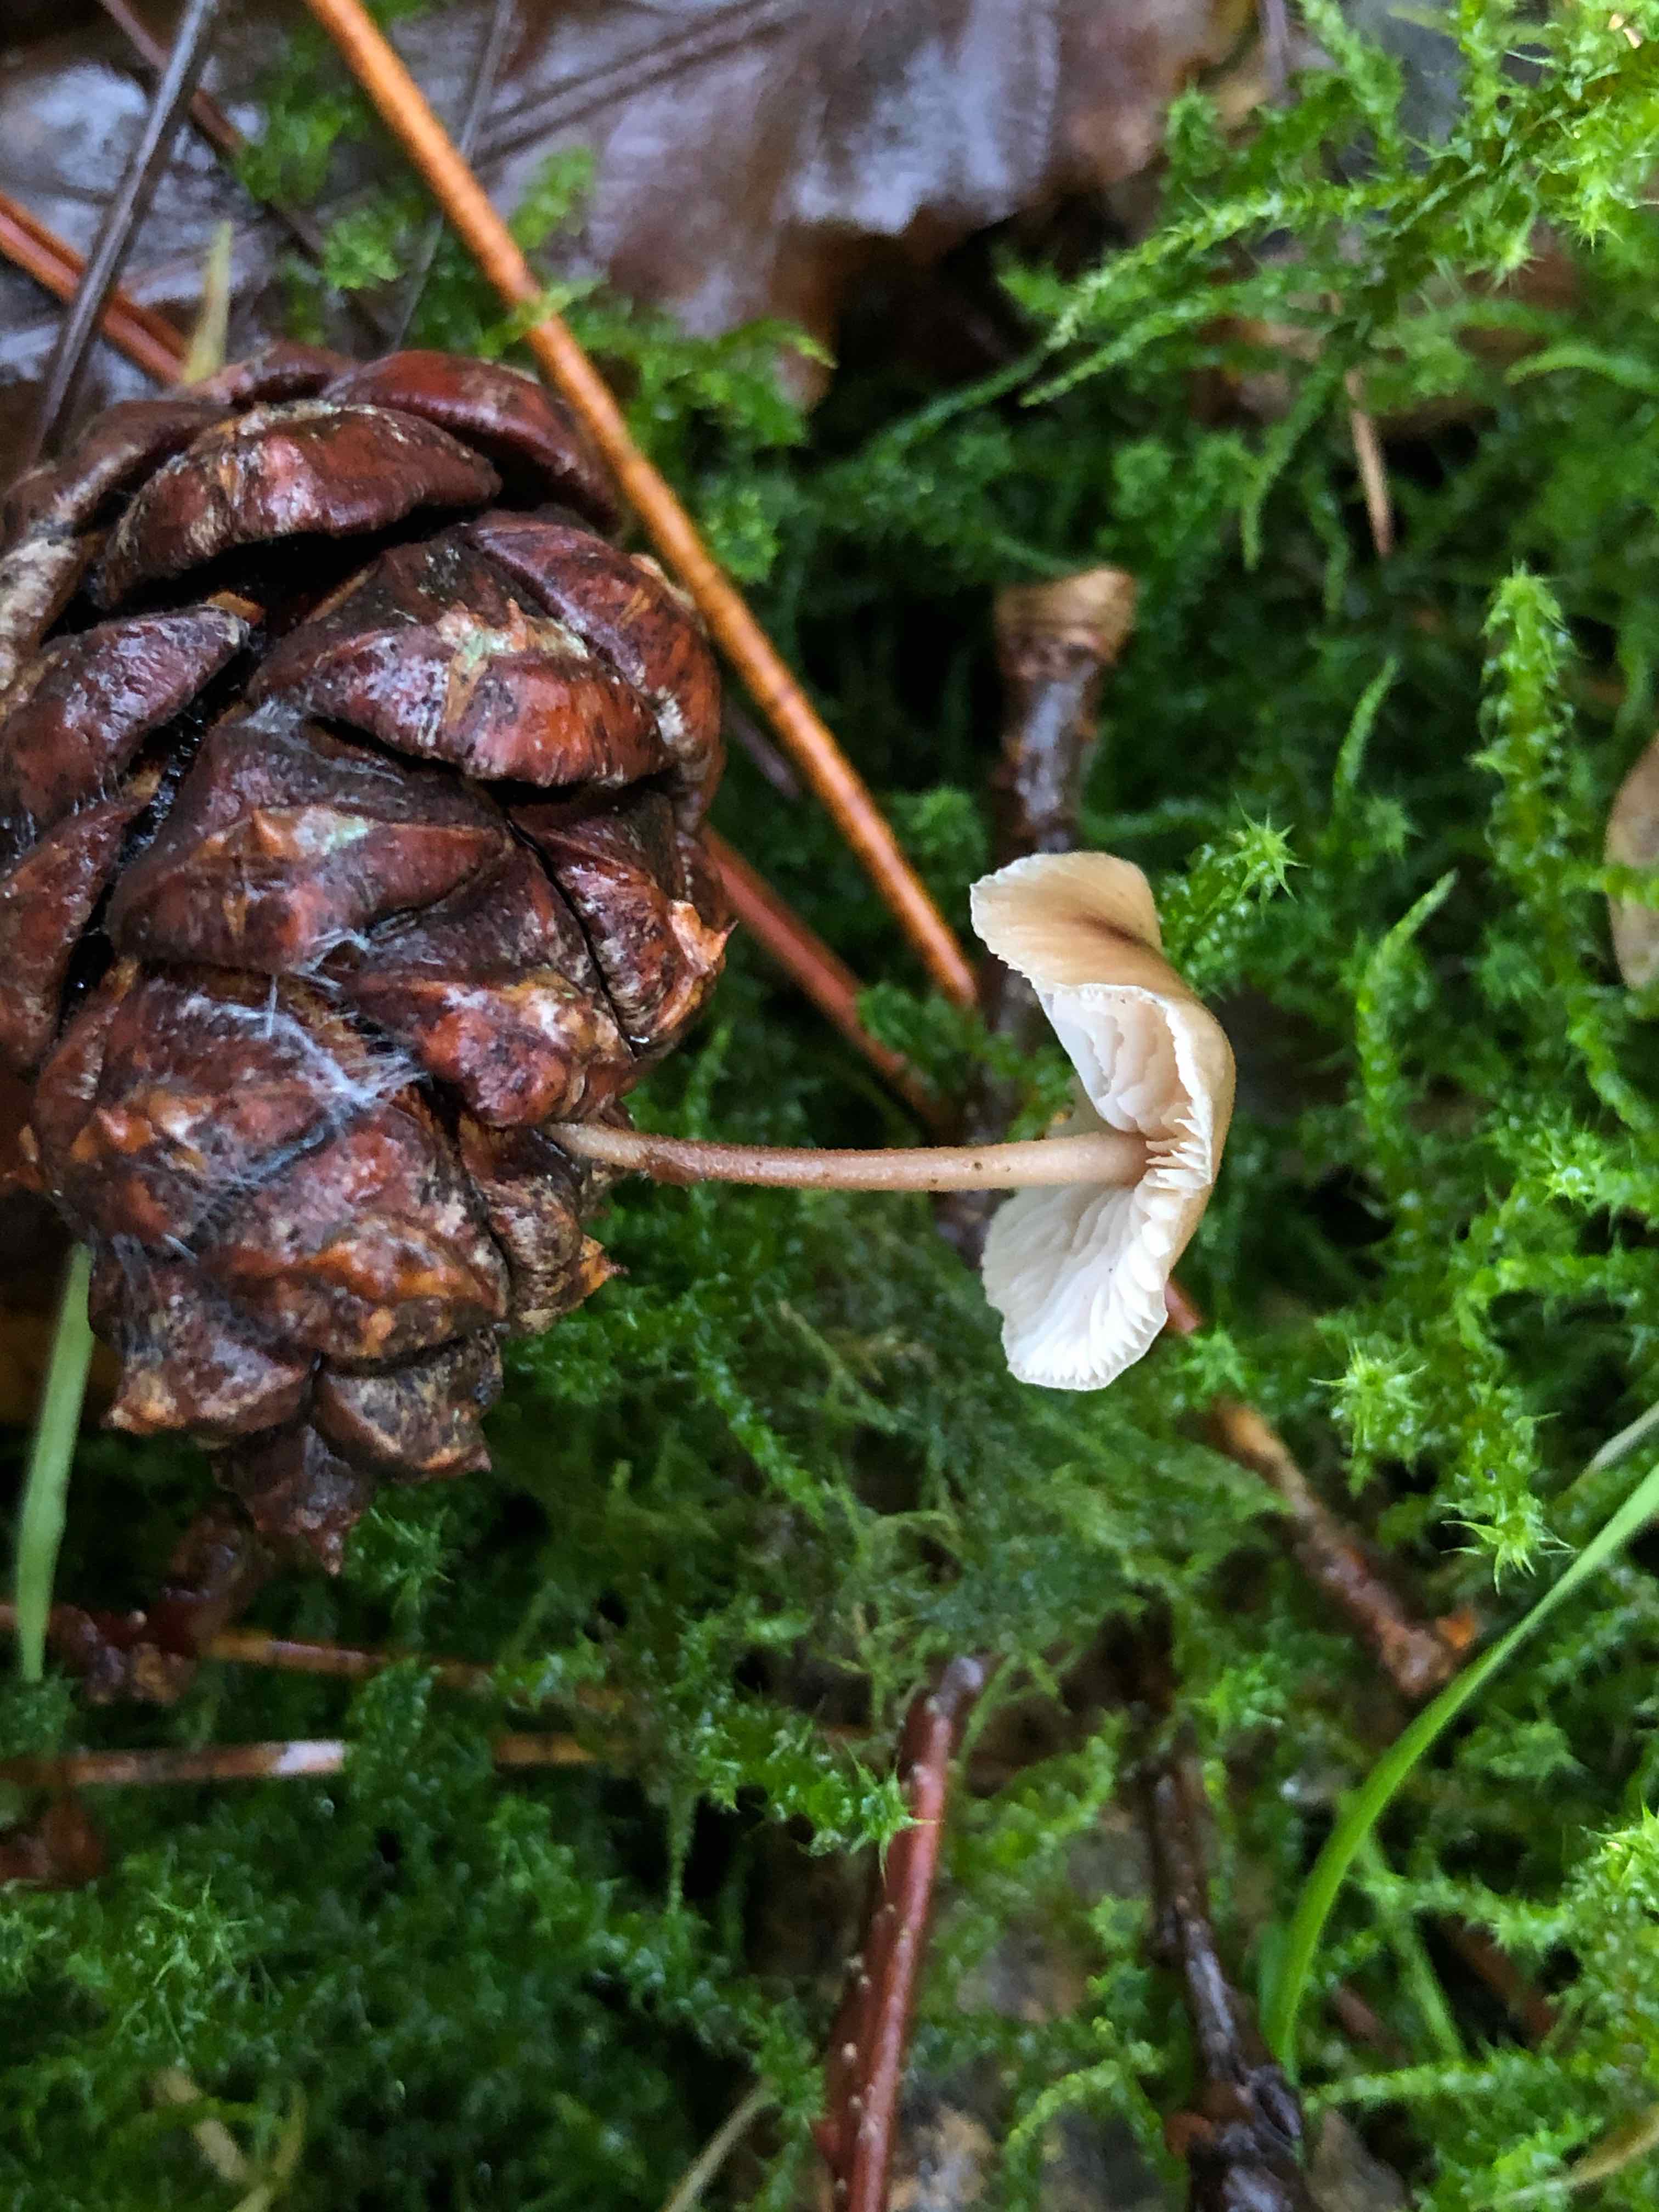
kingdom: Fungi
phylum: Basidiomycota
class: Agaricomycetes
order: Agaricales
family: Marasmiaceae
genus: Baeospora
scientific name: Baeospora myosura
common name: koglebruskhat
